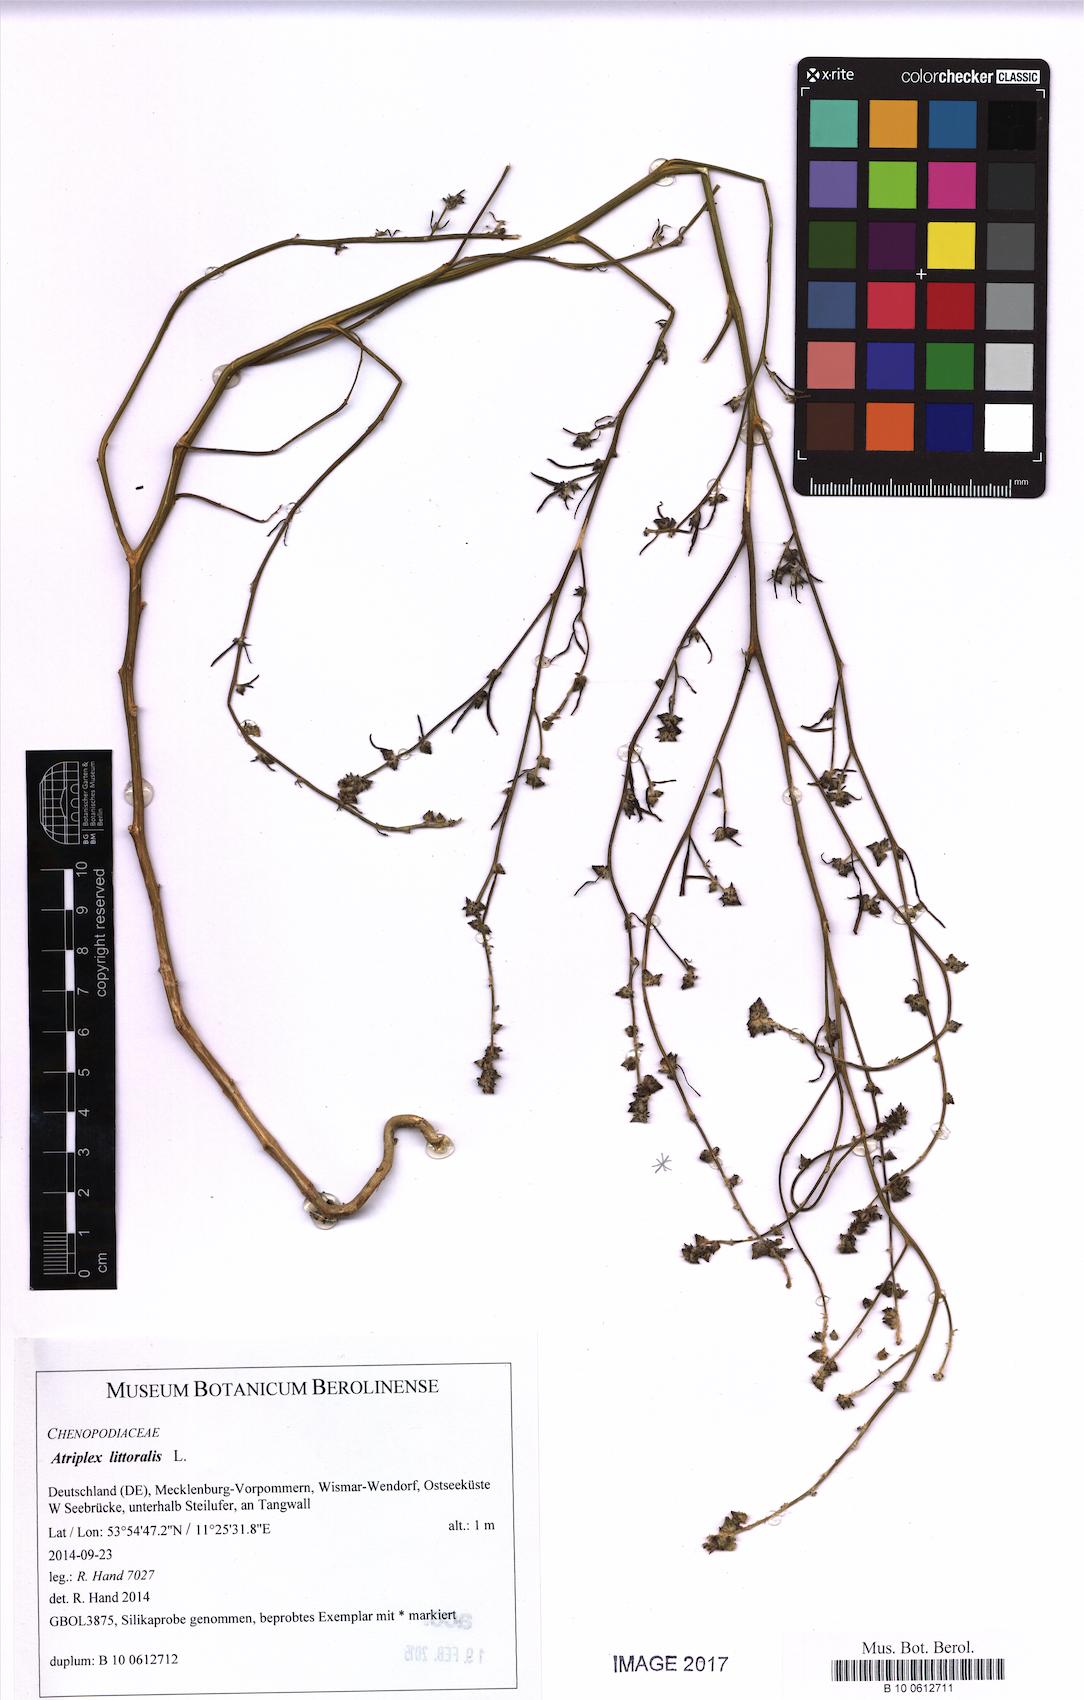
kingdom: Plantae
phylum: Tracheophyta
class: Magnoliopsida
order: Caryophyllales
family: Amaranthaceae
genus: Atriplex
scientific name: Atriplex littoralis
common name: Grass-leaved orache
